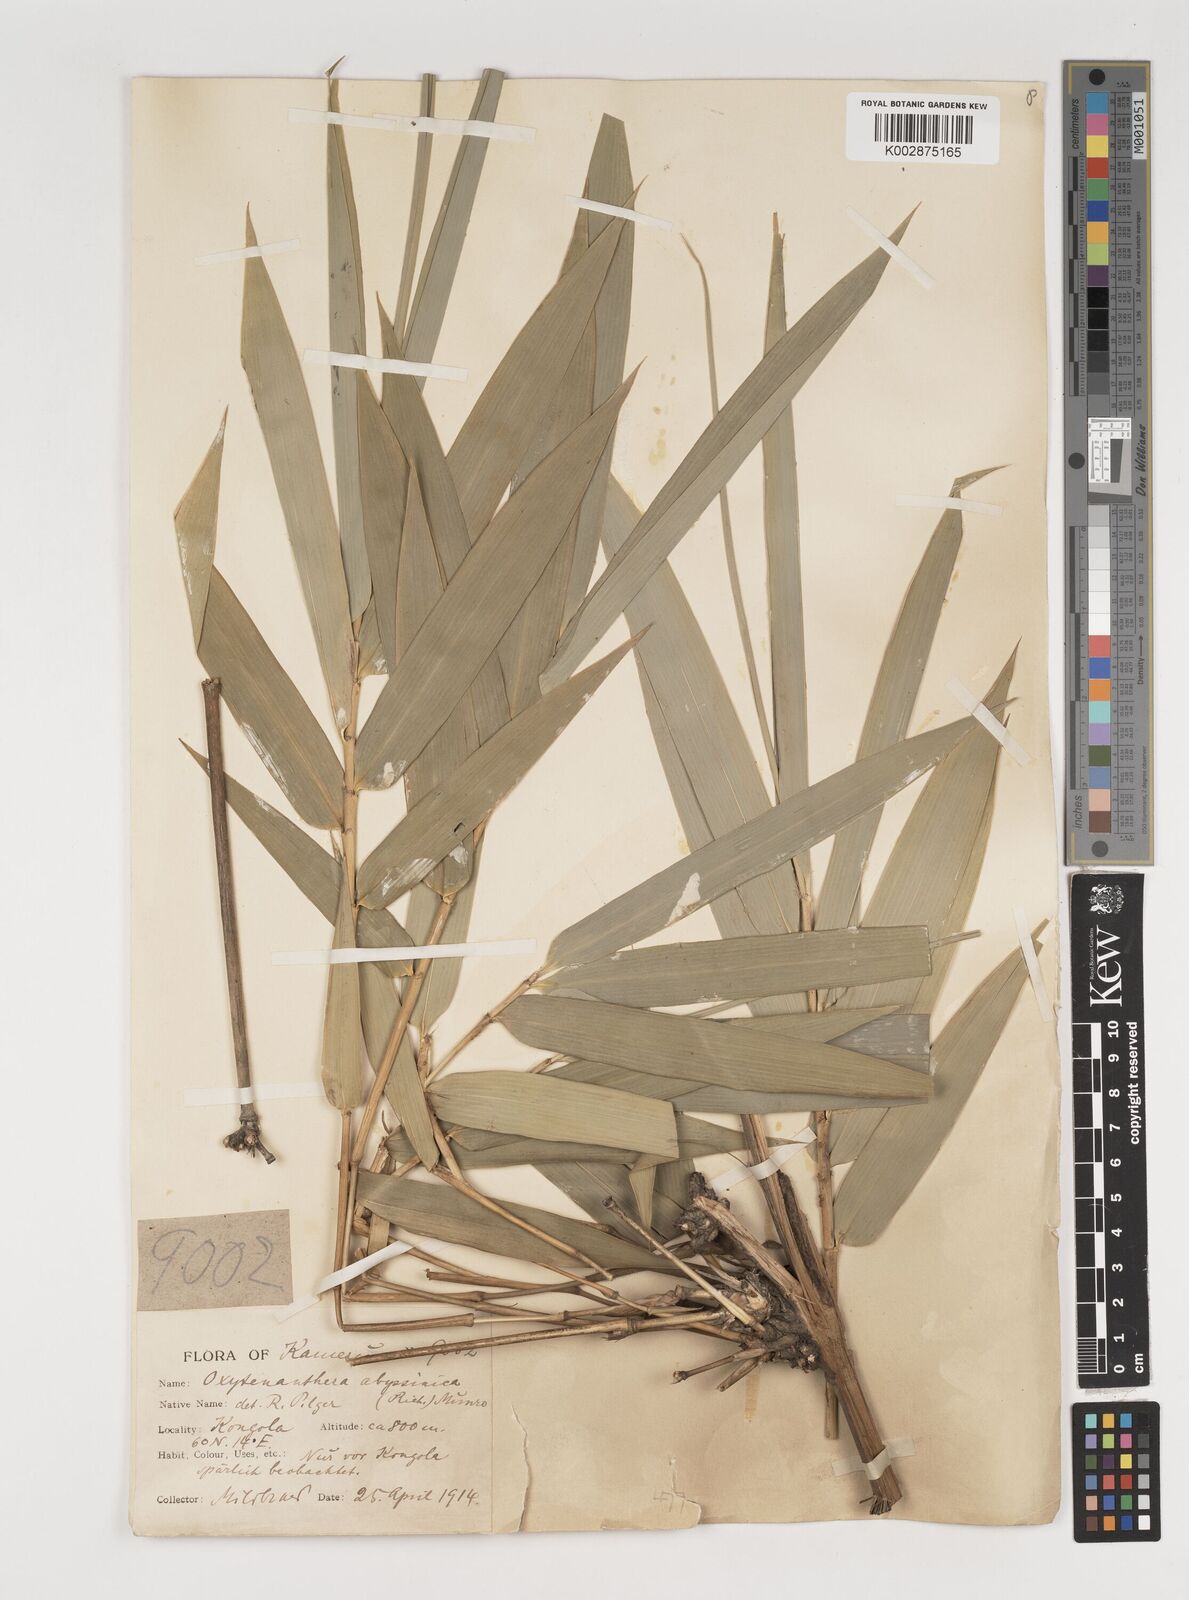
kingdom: Plantae
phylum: Tracheophyta
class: Liliopsida
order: Poales
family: Poaceae
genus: Oxytenanthera
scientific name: Oxytenanthera abyssinica
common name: Wine bamboo
